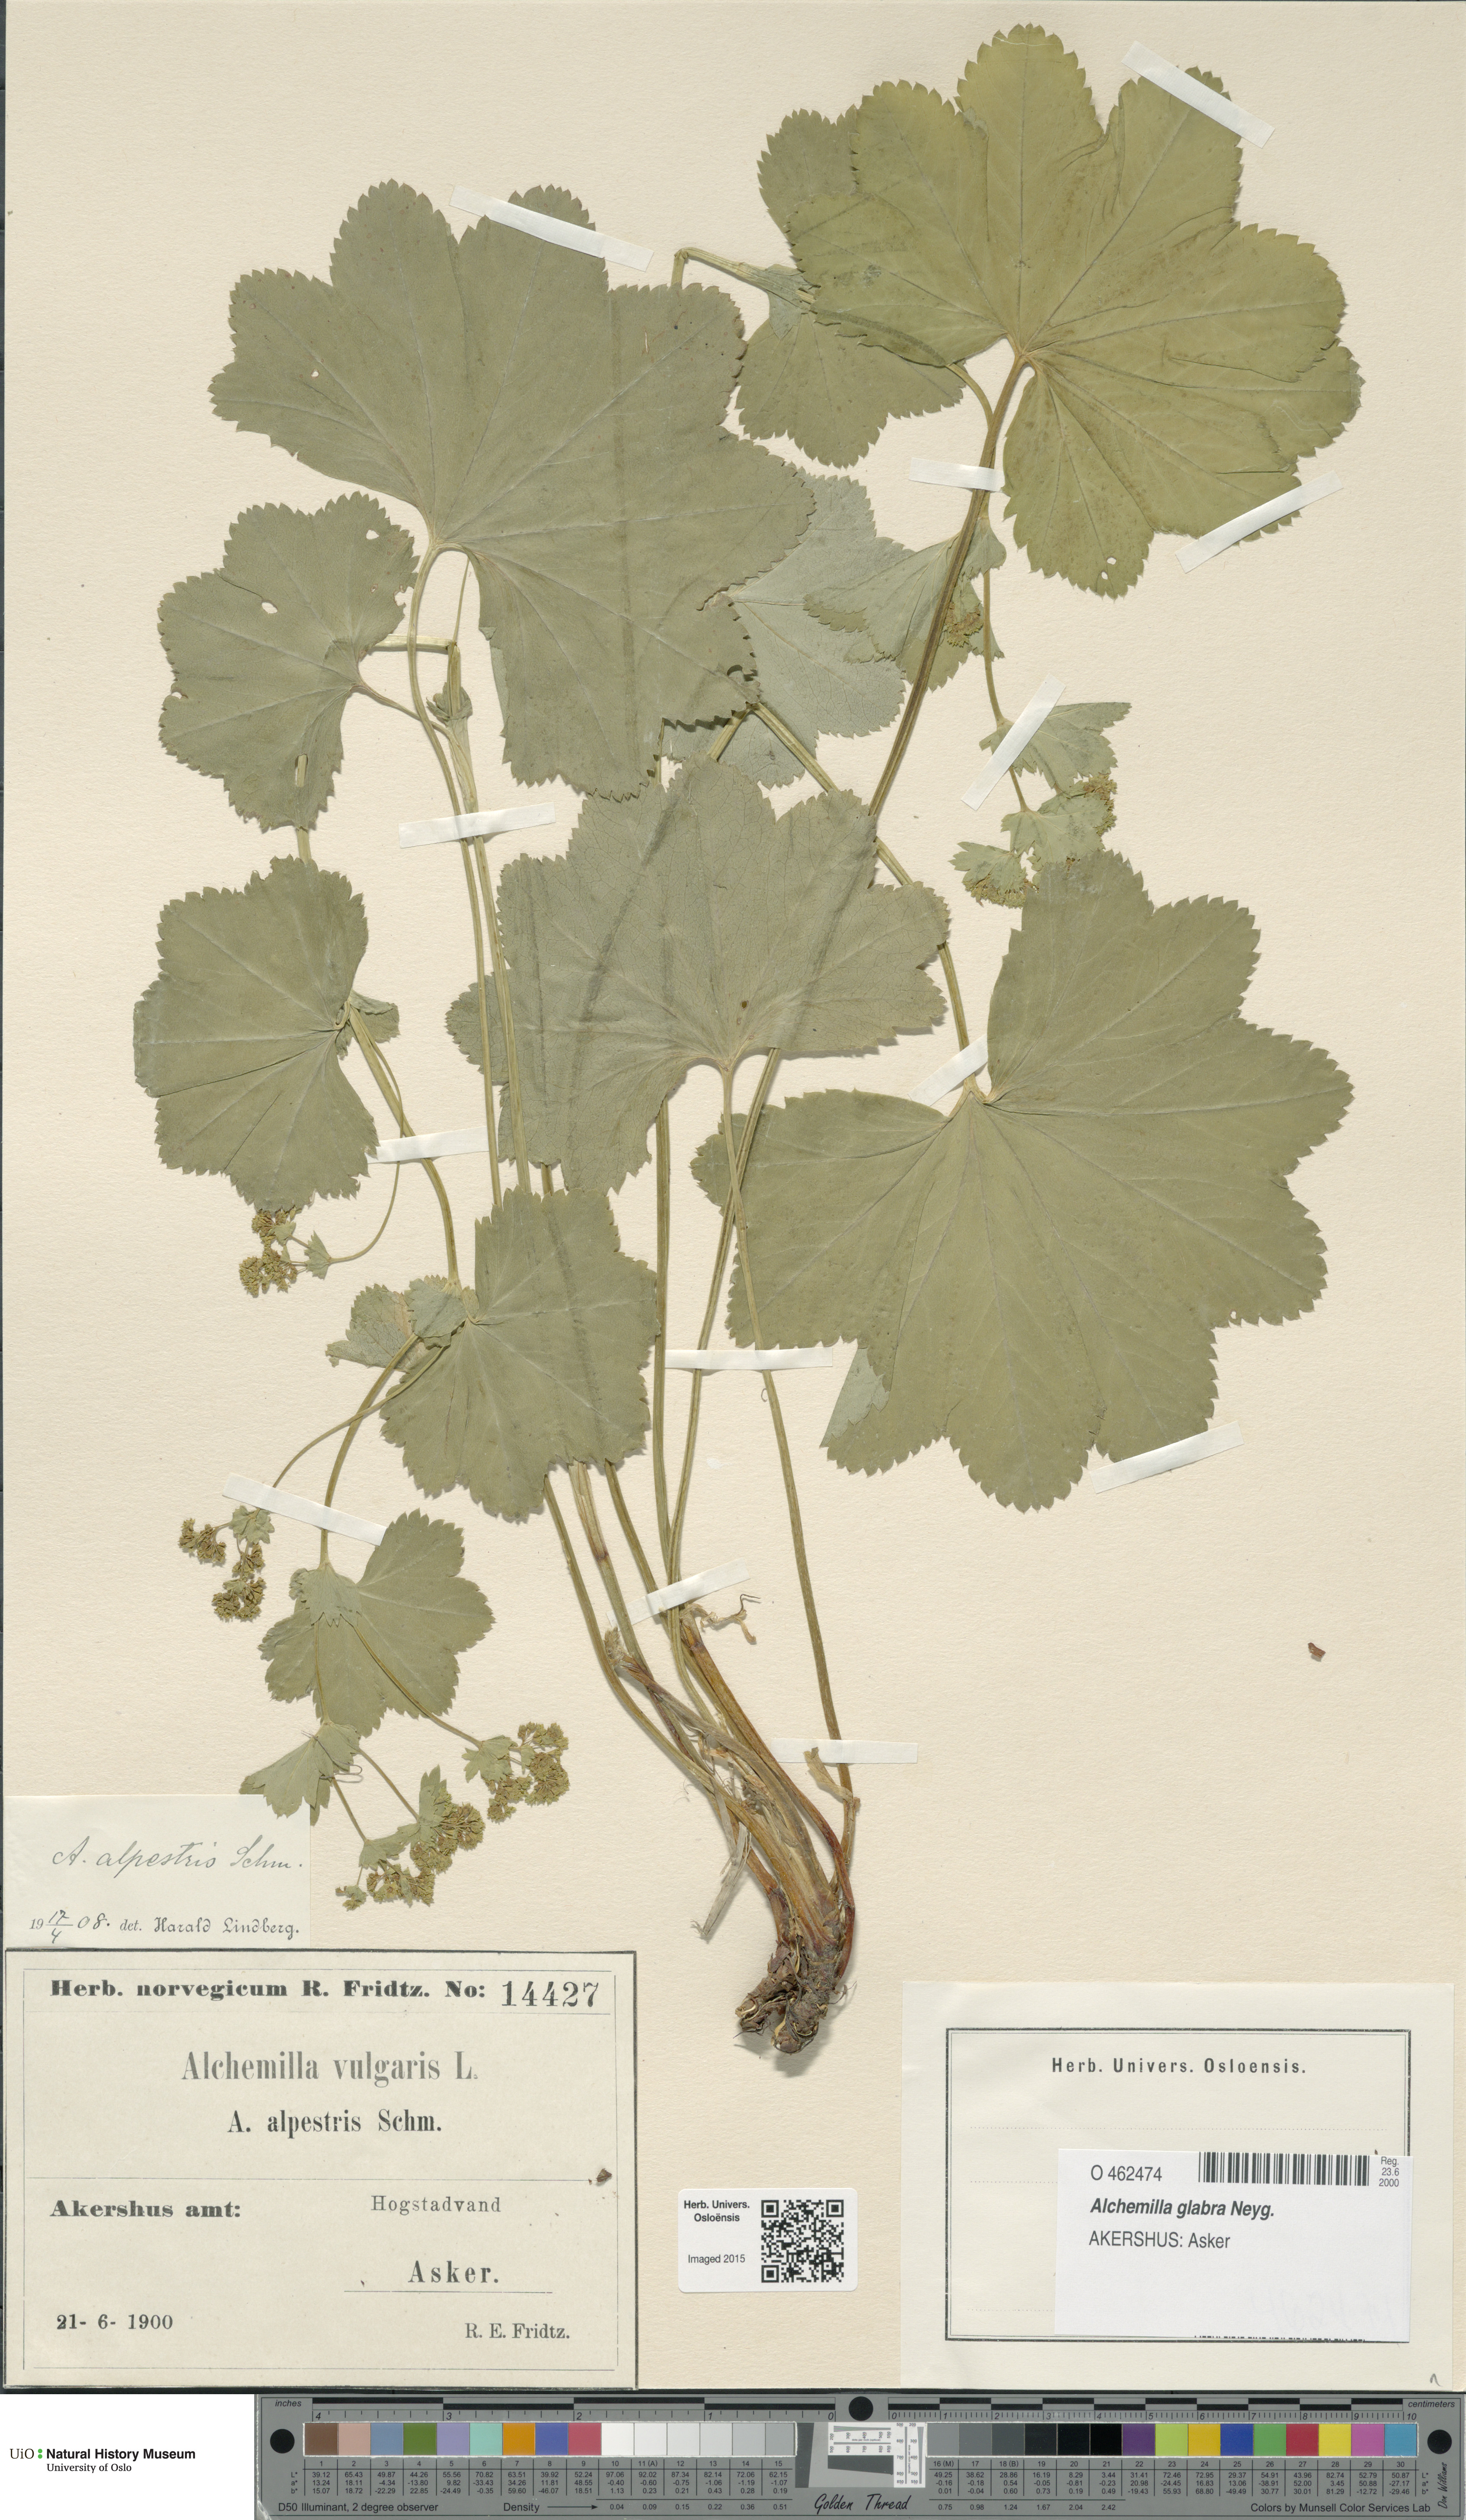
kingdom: Plantae
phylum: Tracheophyta
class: Magnoliopsida
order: Rosales
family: Rosaceae
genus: Alchemilla
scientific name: Alchemilla glabra
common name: Smooth lady's-mantle
